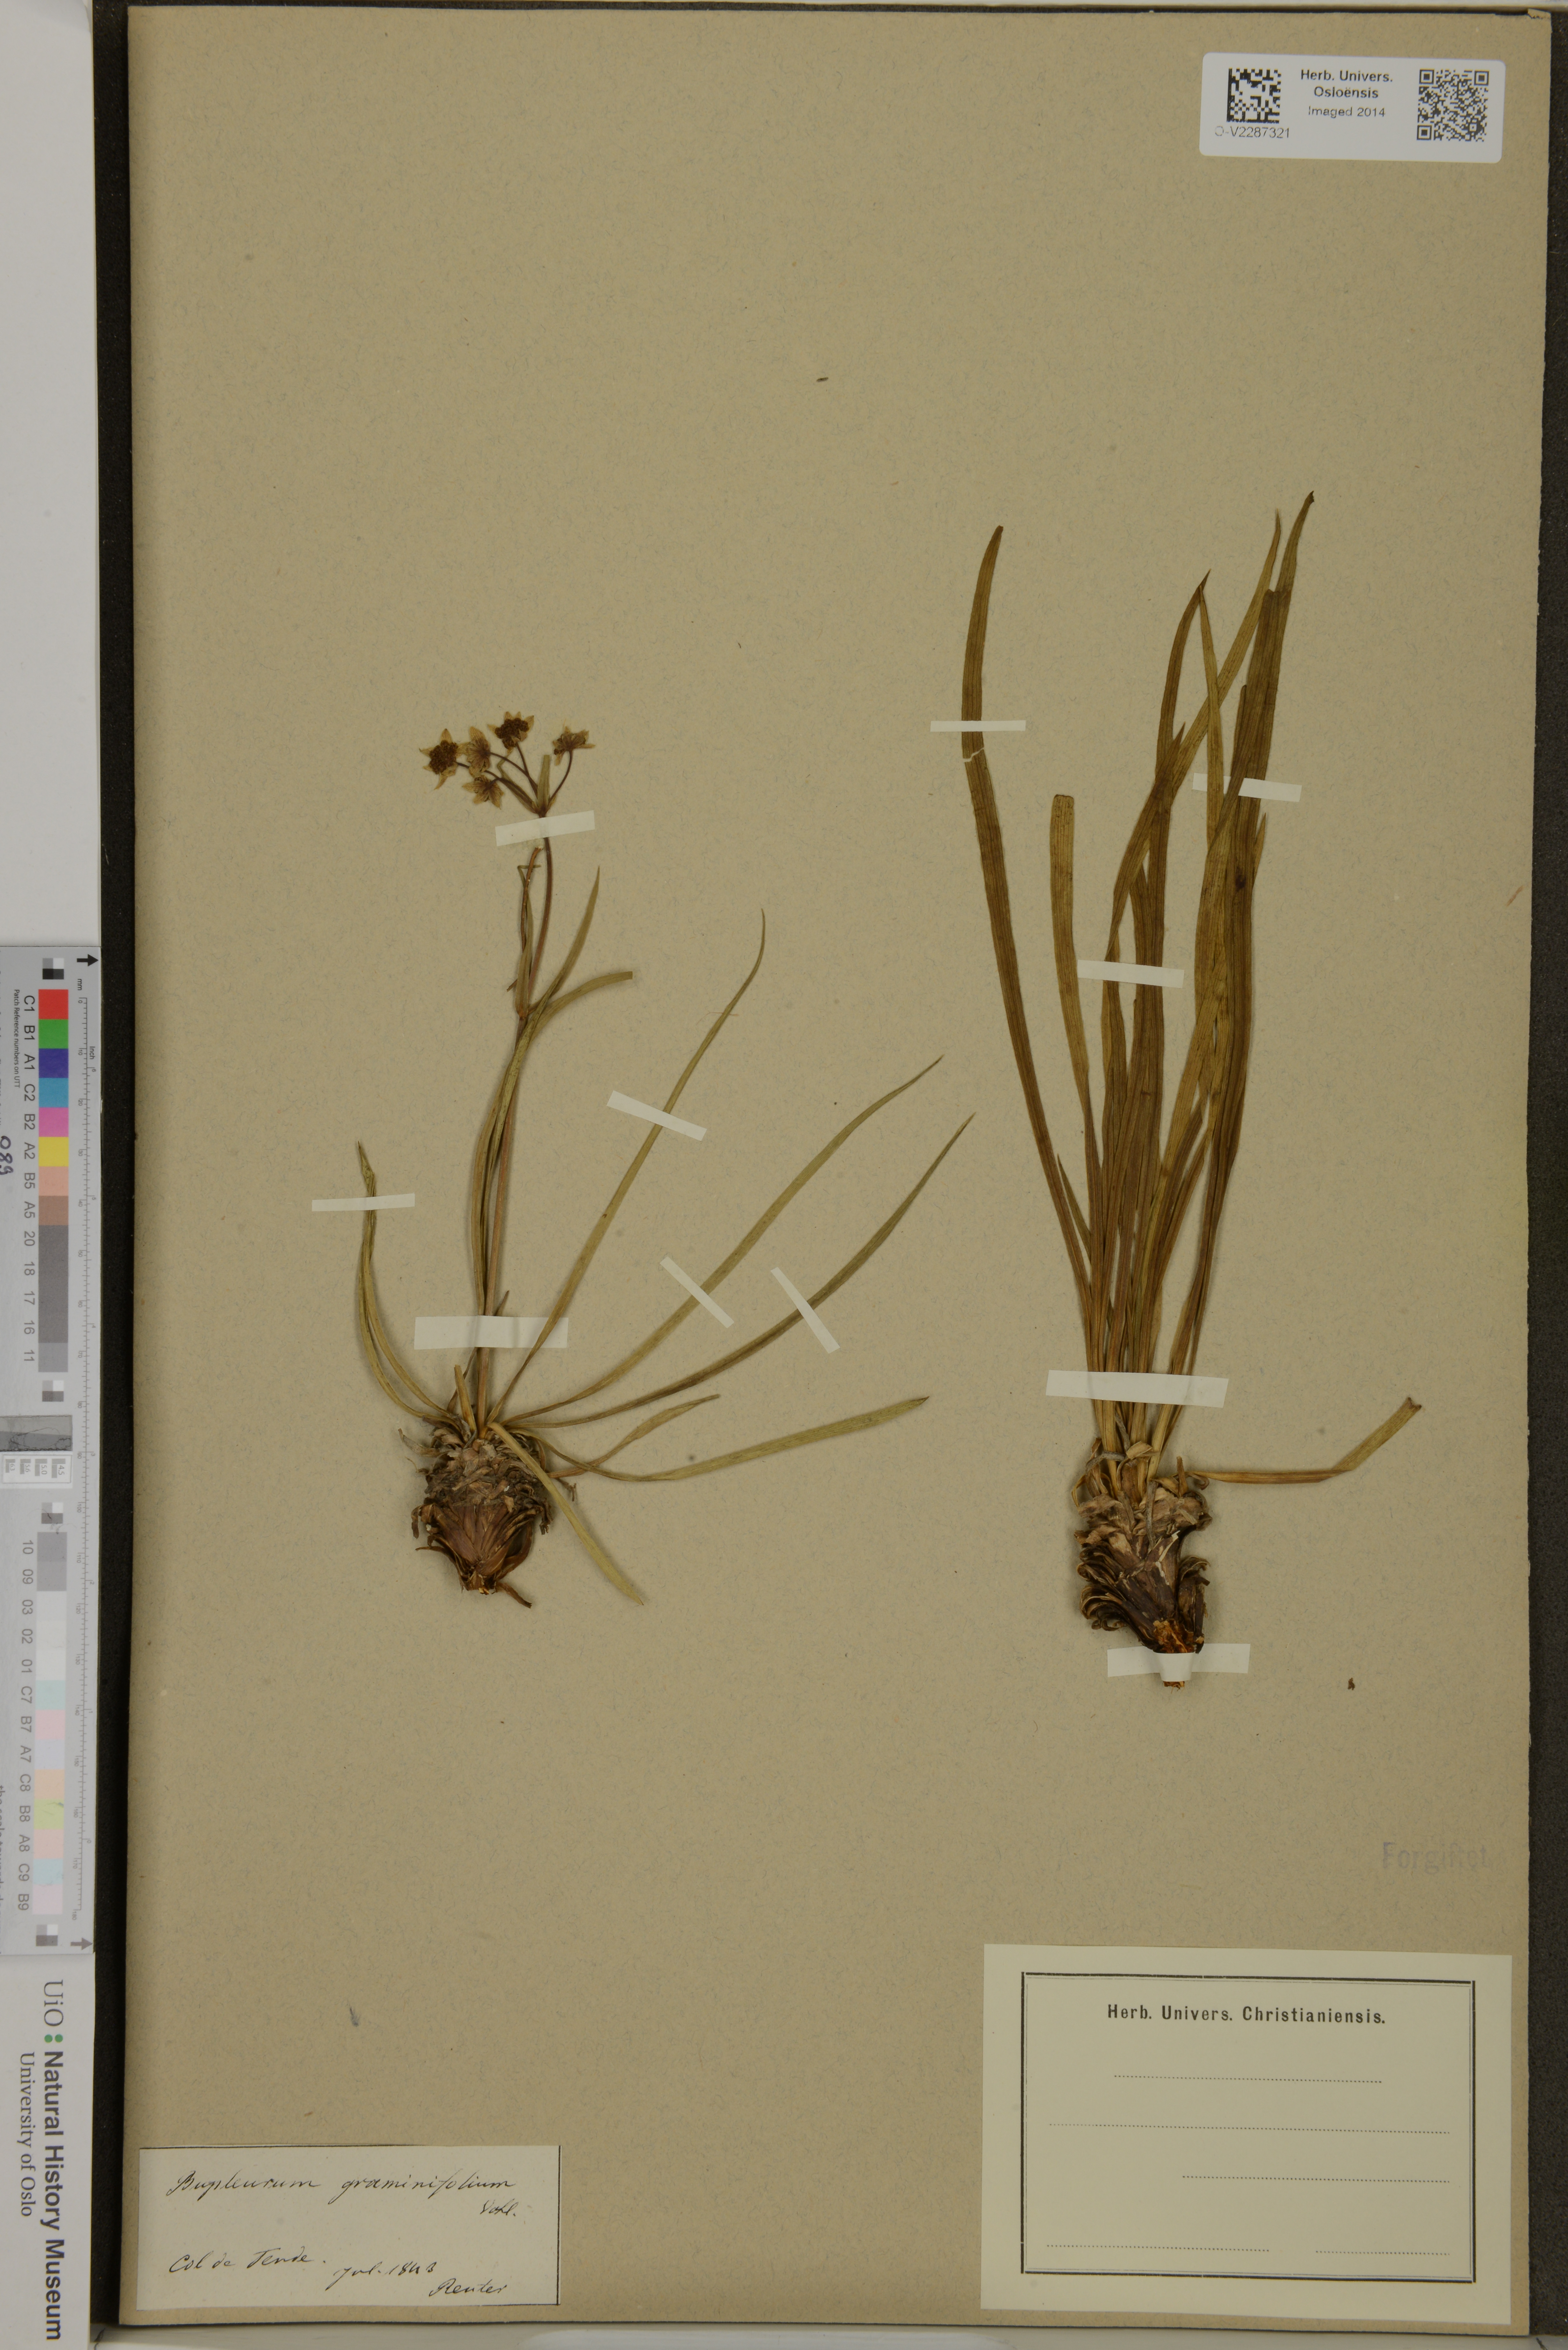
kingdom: Plantae
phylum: Tracheophyta
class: Magnoliopsida
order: Apiales
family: Apiaceae
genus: Bupleurum
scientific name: Bupleurum
